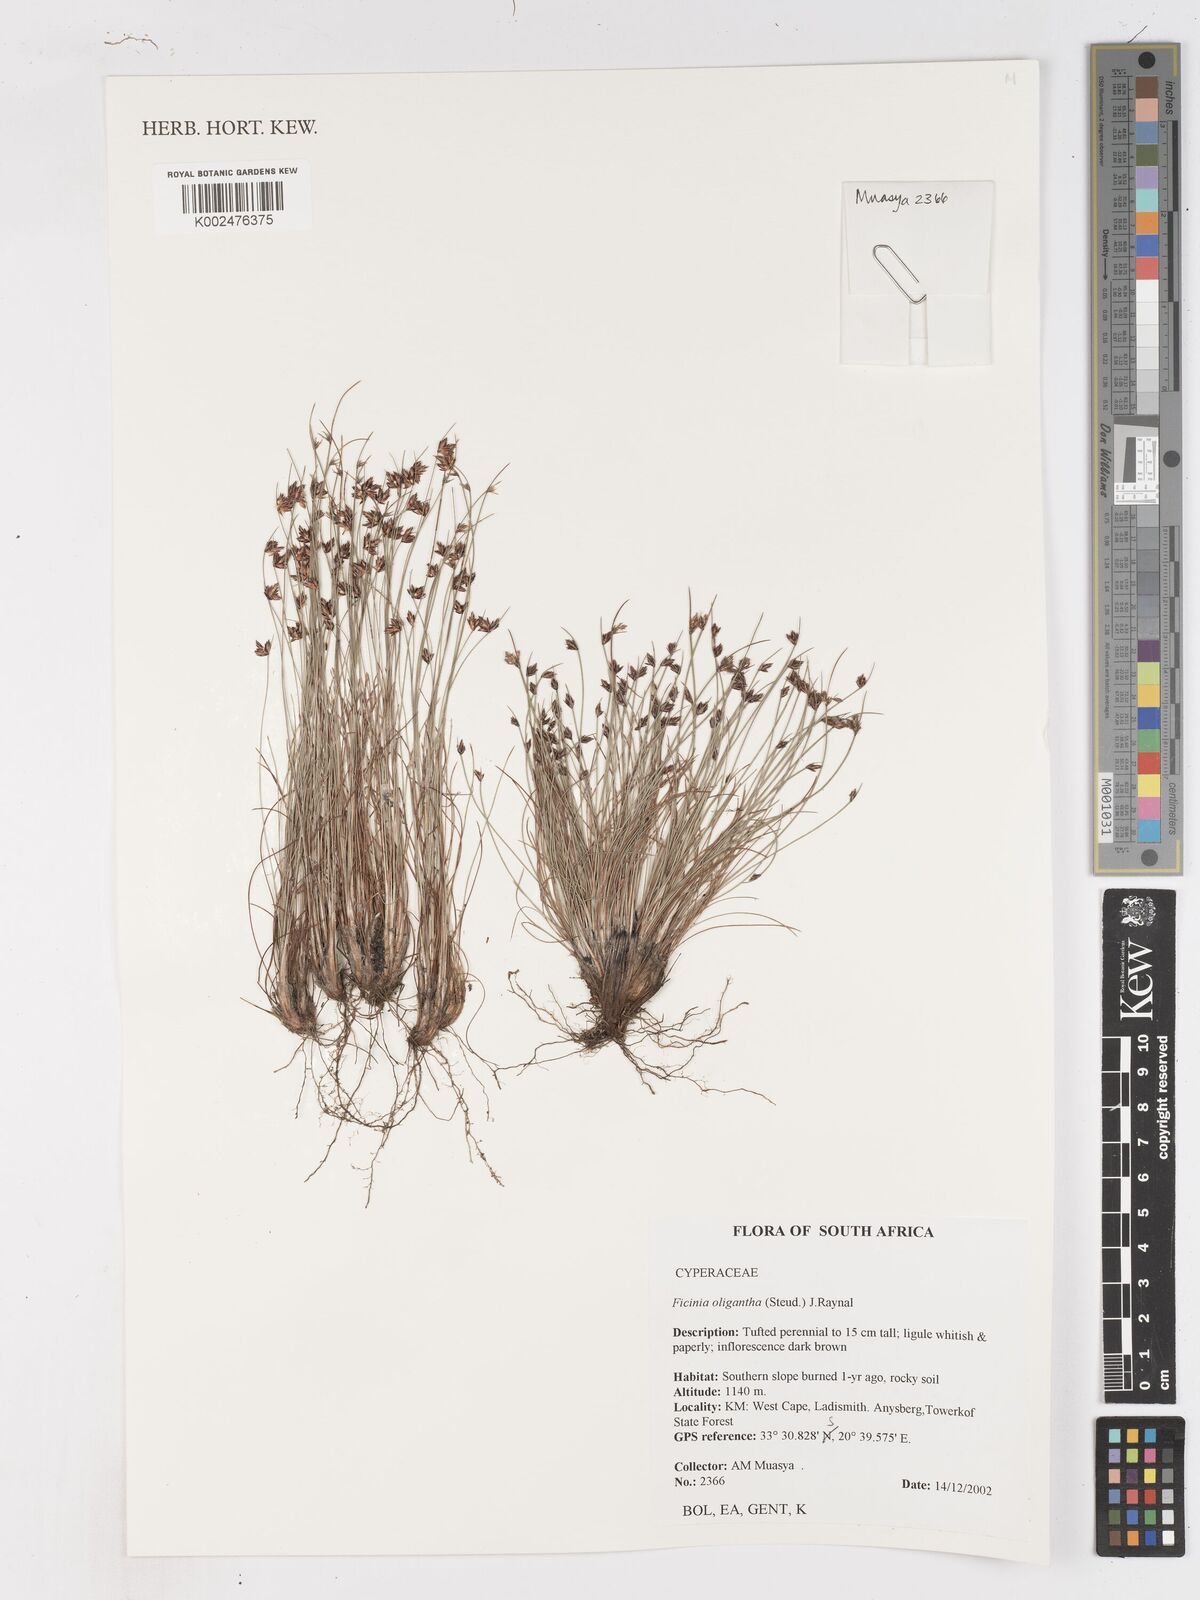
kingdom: Plantae
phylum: Tracheophyta
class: Liliopsida
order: Poales
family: Cyperaceae
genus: Ficinia
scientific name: Ficinia oligantha
